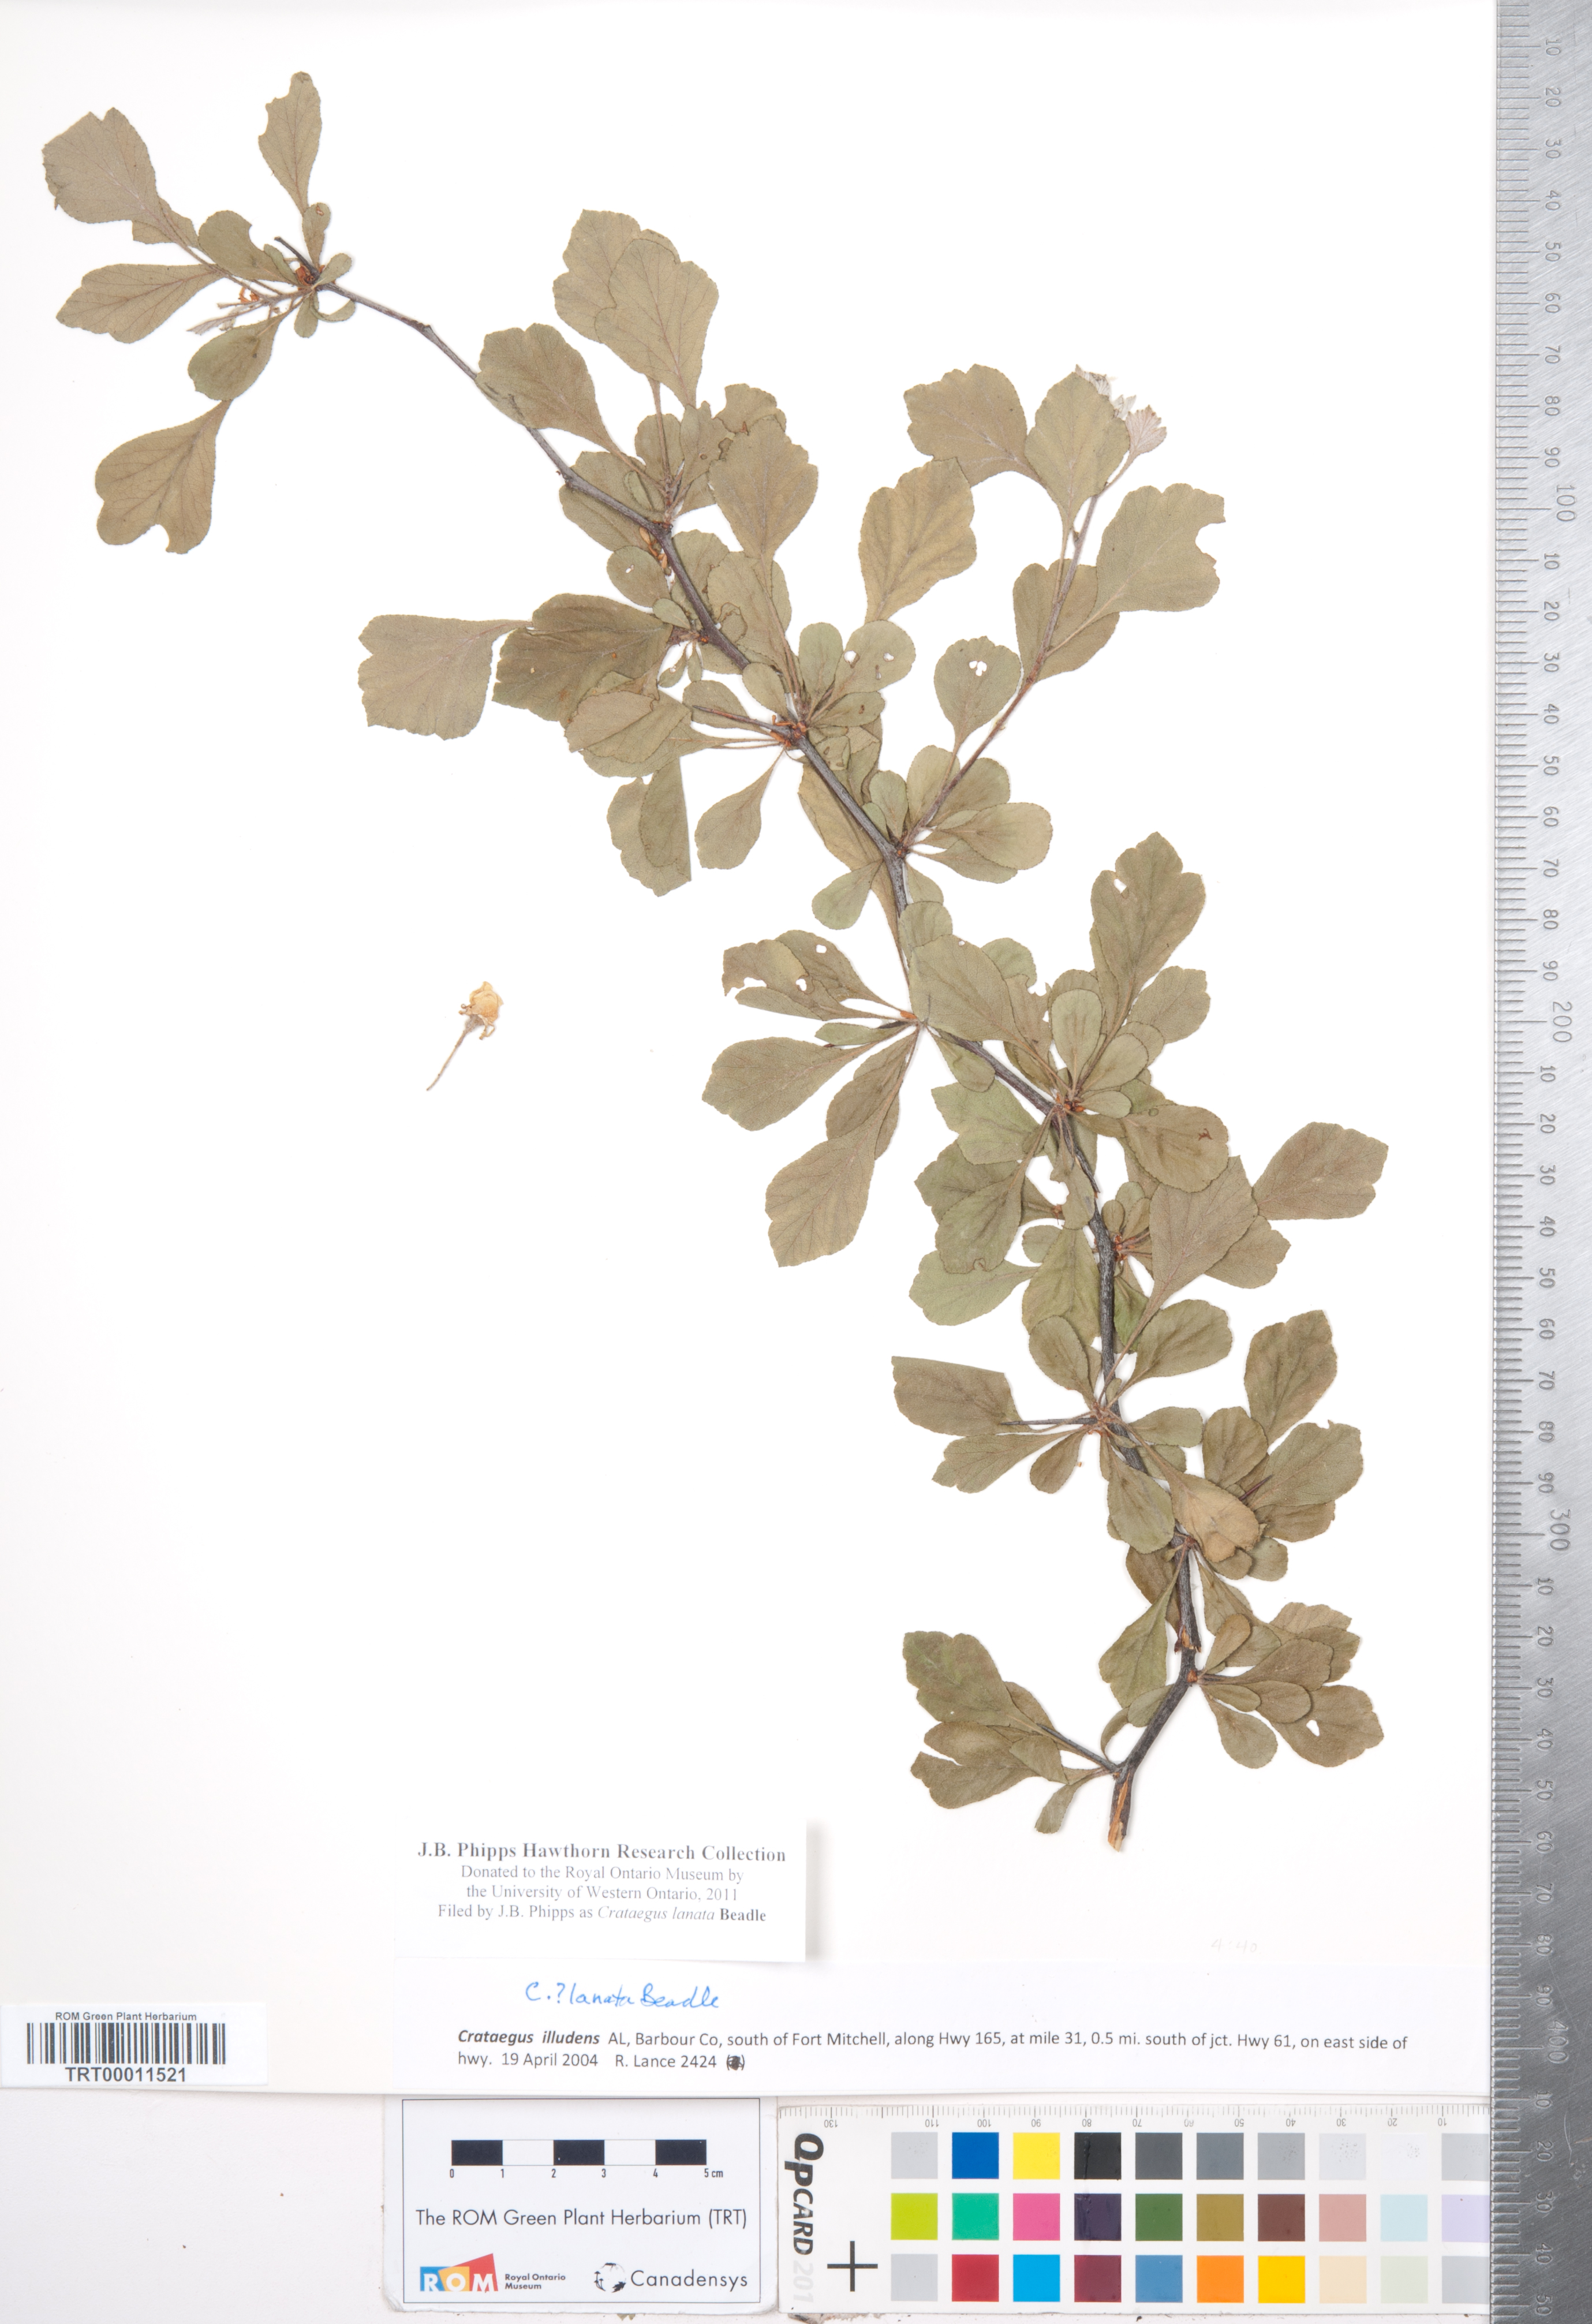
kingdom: Plantae
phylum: Tracheophyta
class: Magnoliopsida
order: Rosales
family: Rosaceae
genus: Crataegus
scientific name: Crataegus lassa
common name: Florida hawthorn
